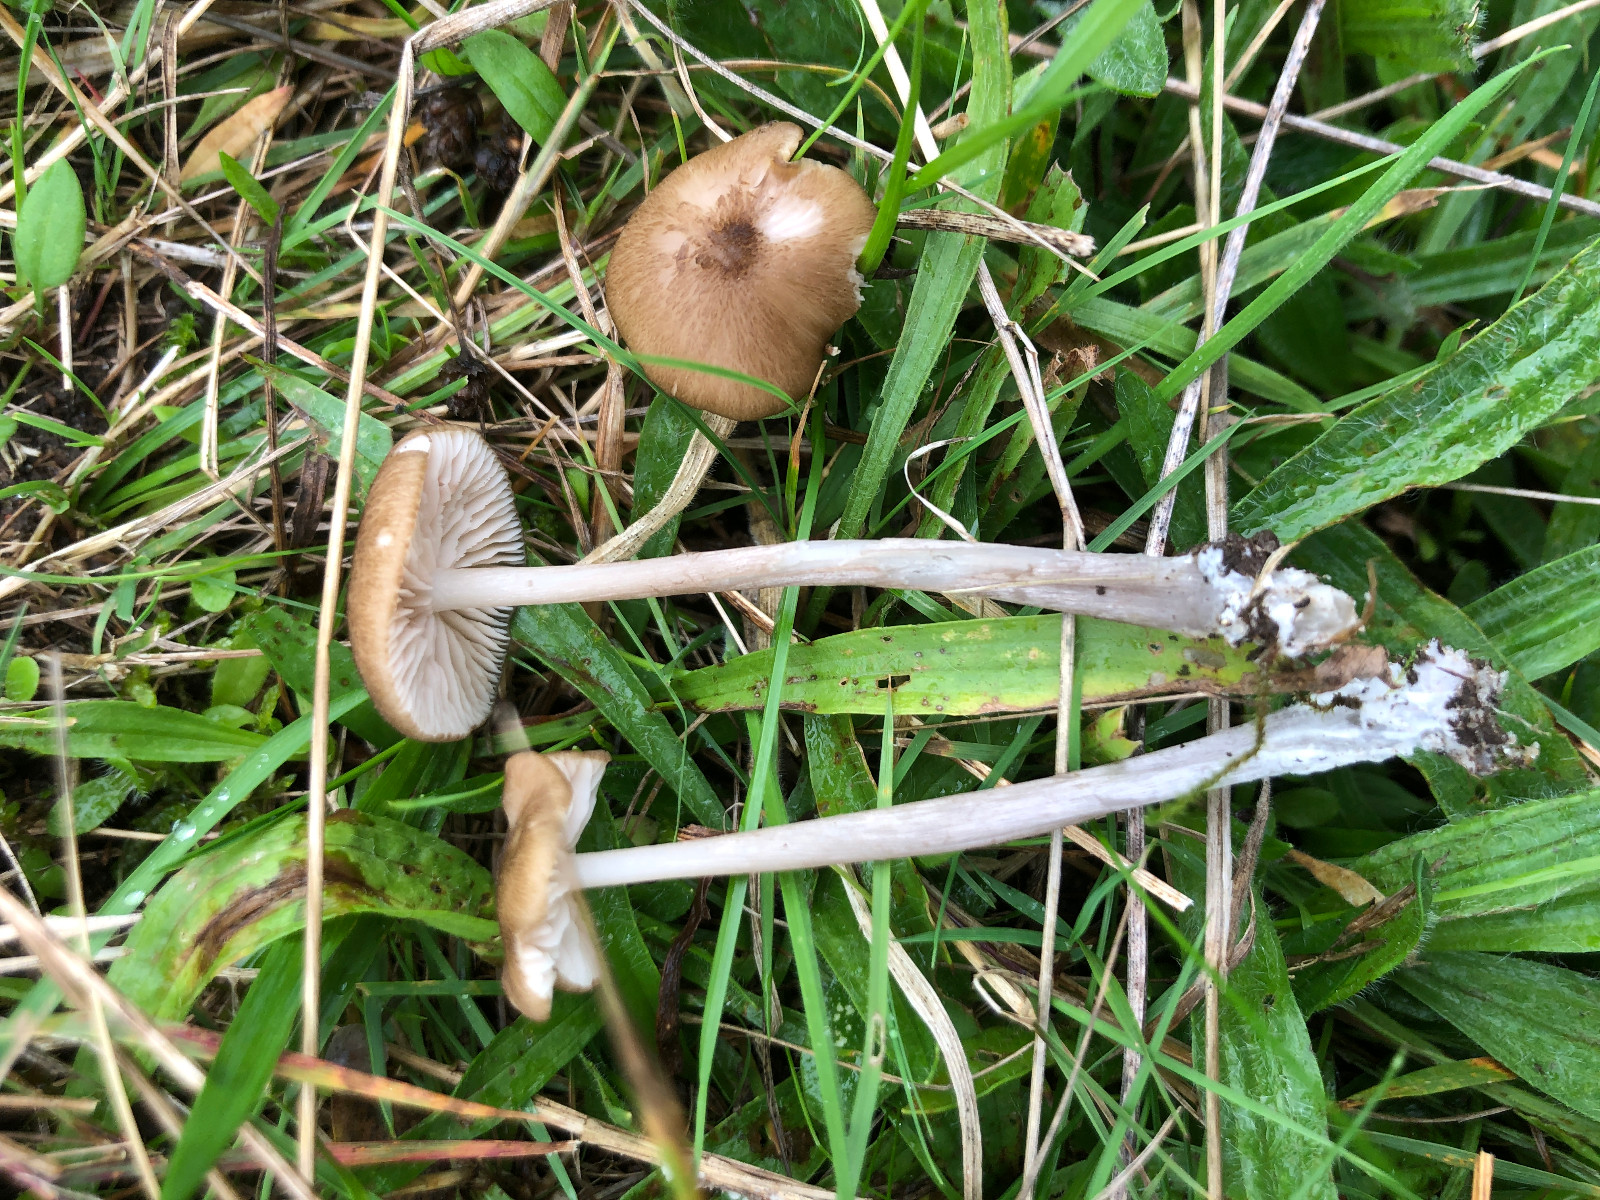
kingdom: Fungi
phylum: Basidiomycota
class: Agaricomycetes
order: Agaricales
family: Entolomataceae
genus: Entoloma
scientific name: Entoloma viiduense
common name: purpurbrun rødblad
